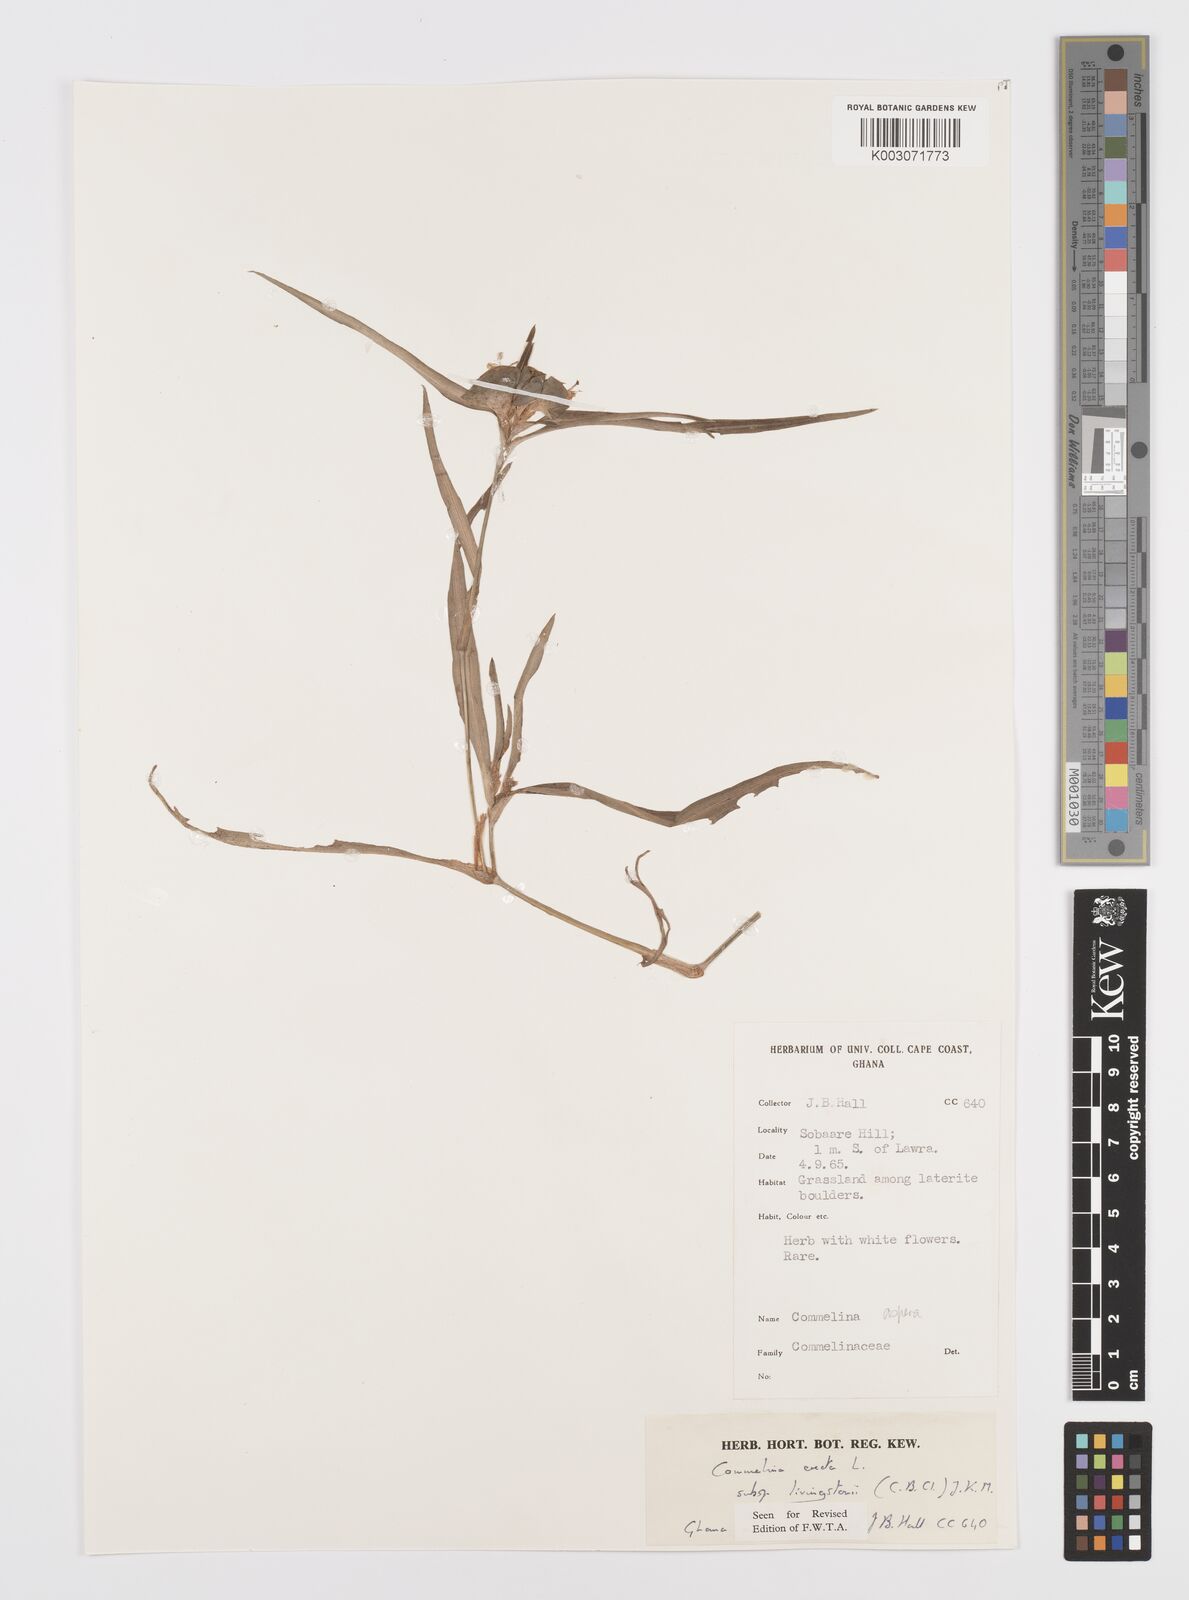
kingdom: Plantae
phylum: Tracheophyta
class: Liliopsida
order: Commelinales
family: Commelinaceae
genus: Commelina
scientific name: Commelina erecta
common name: Blousel blommetjie
